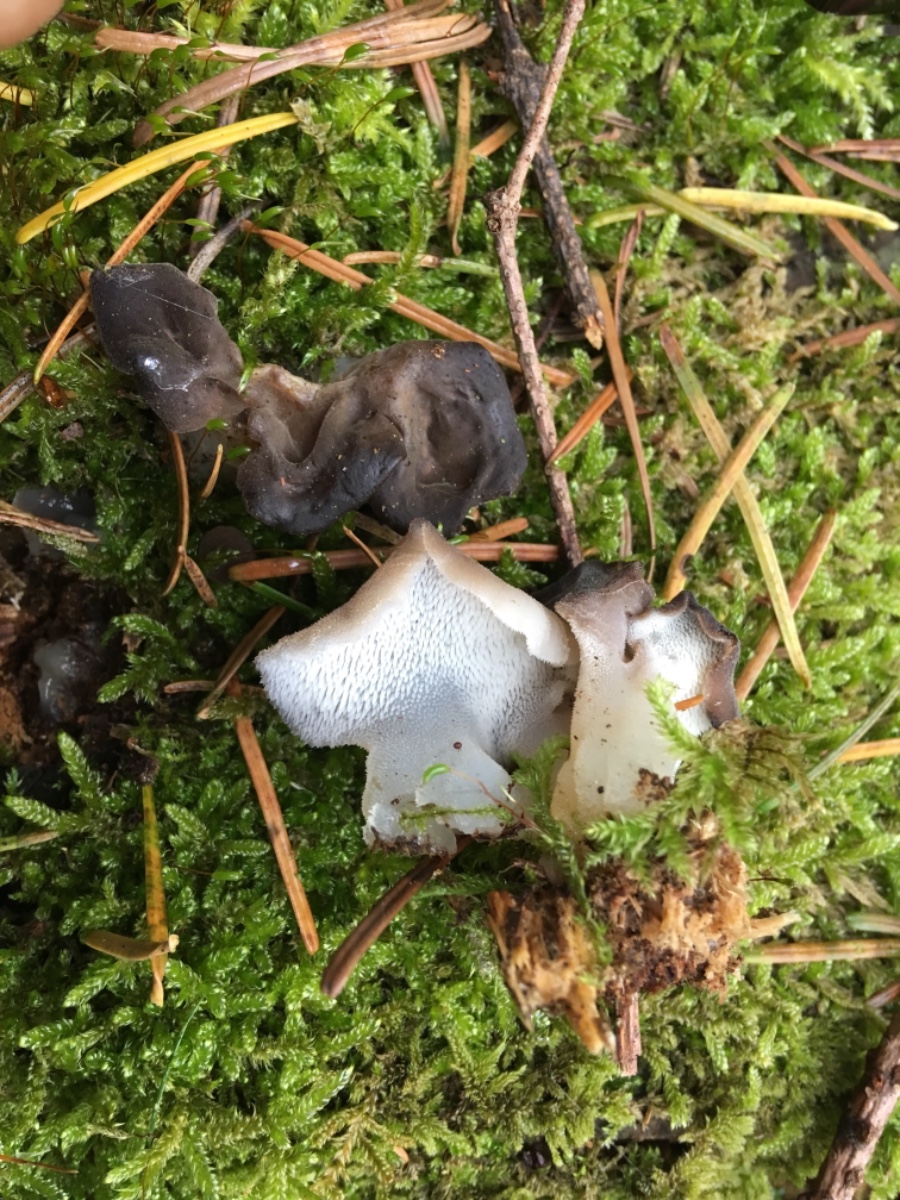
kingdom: Fungi
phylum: Basidiomycota
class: Agaricomycetes
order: Auriculariales
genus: Pseudohydnum
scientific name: Pseudohydnum gelatinosum
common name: bævretand
